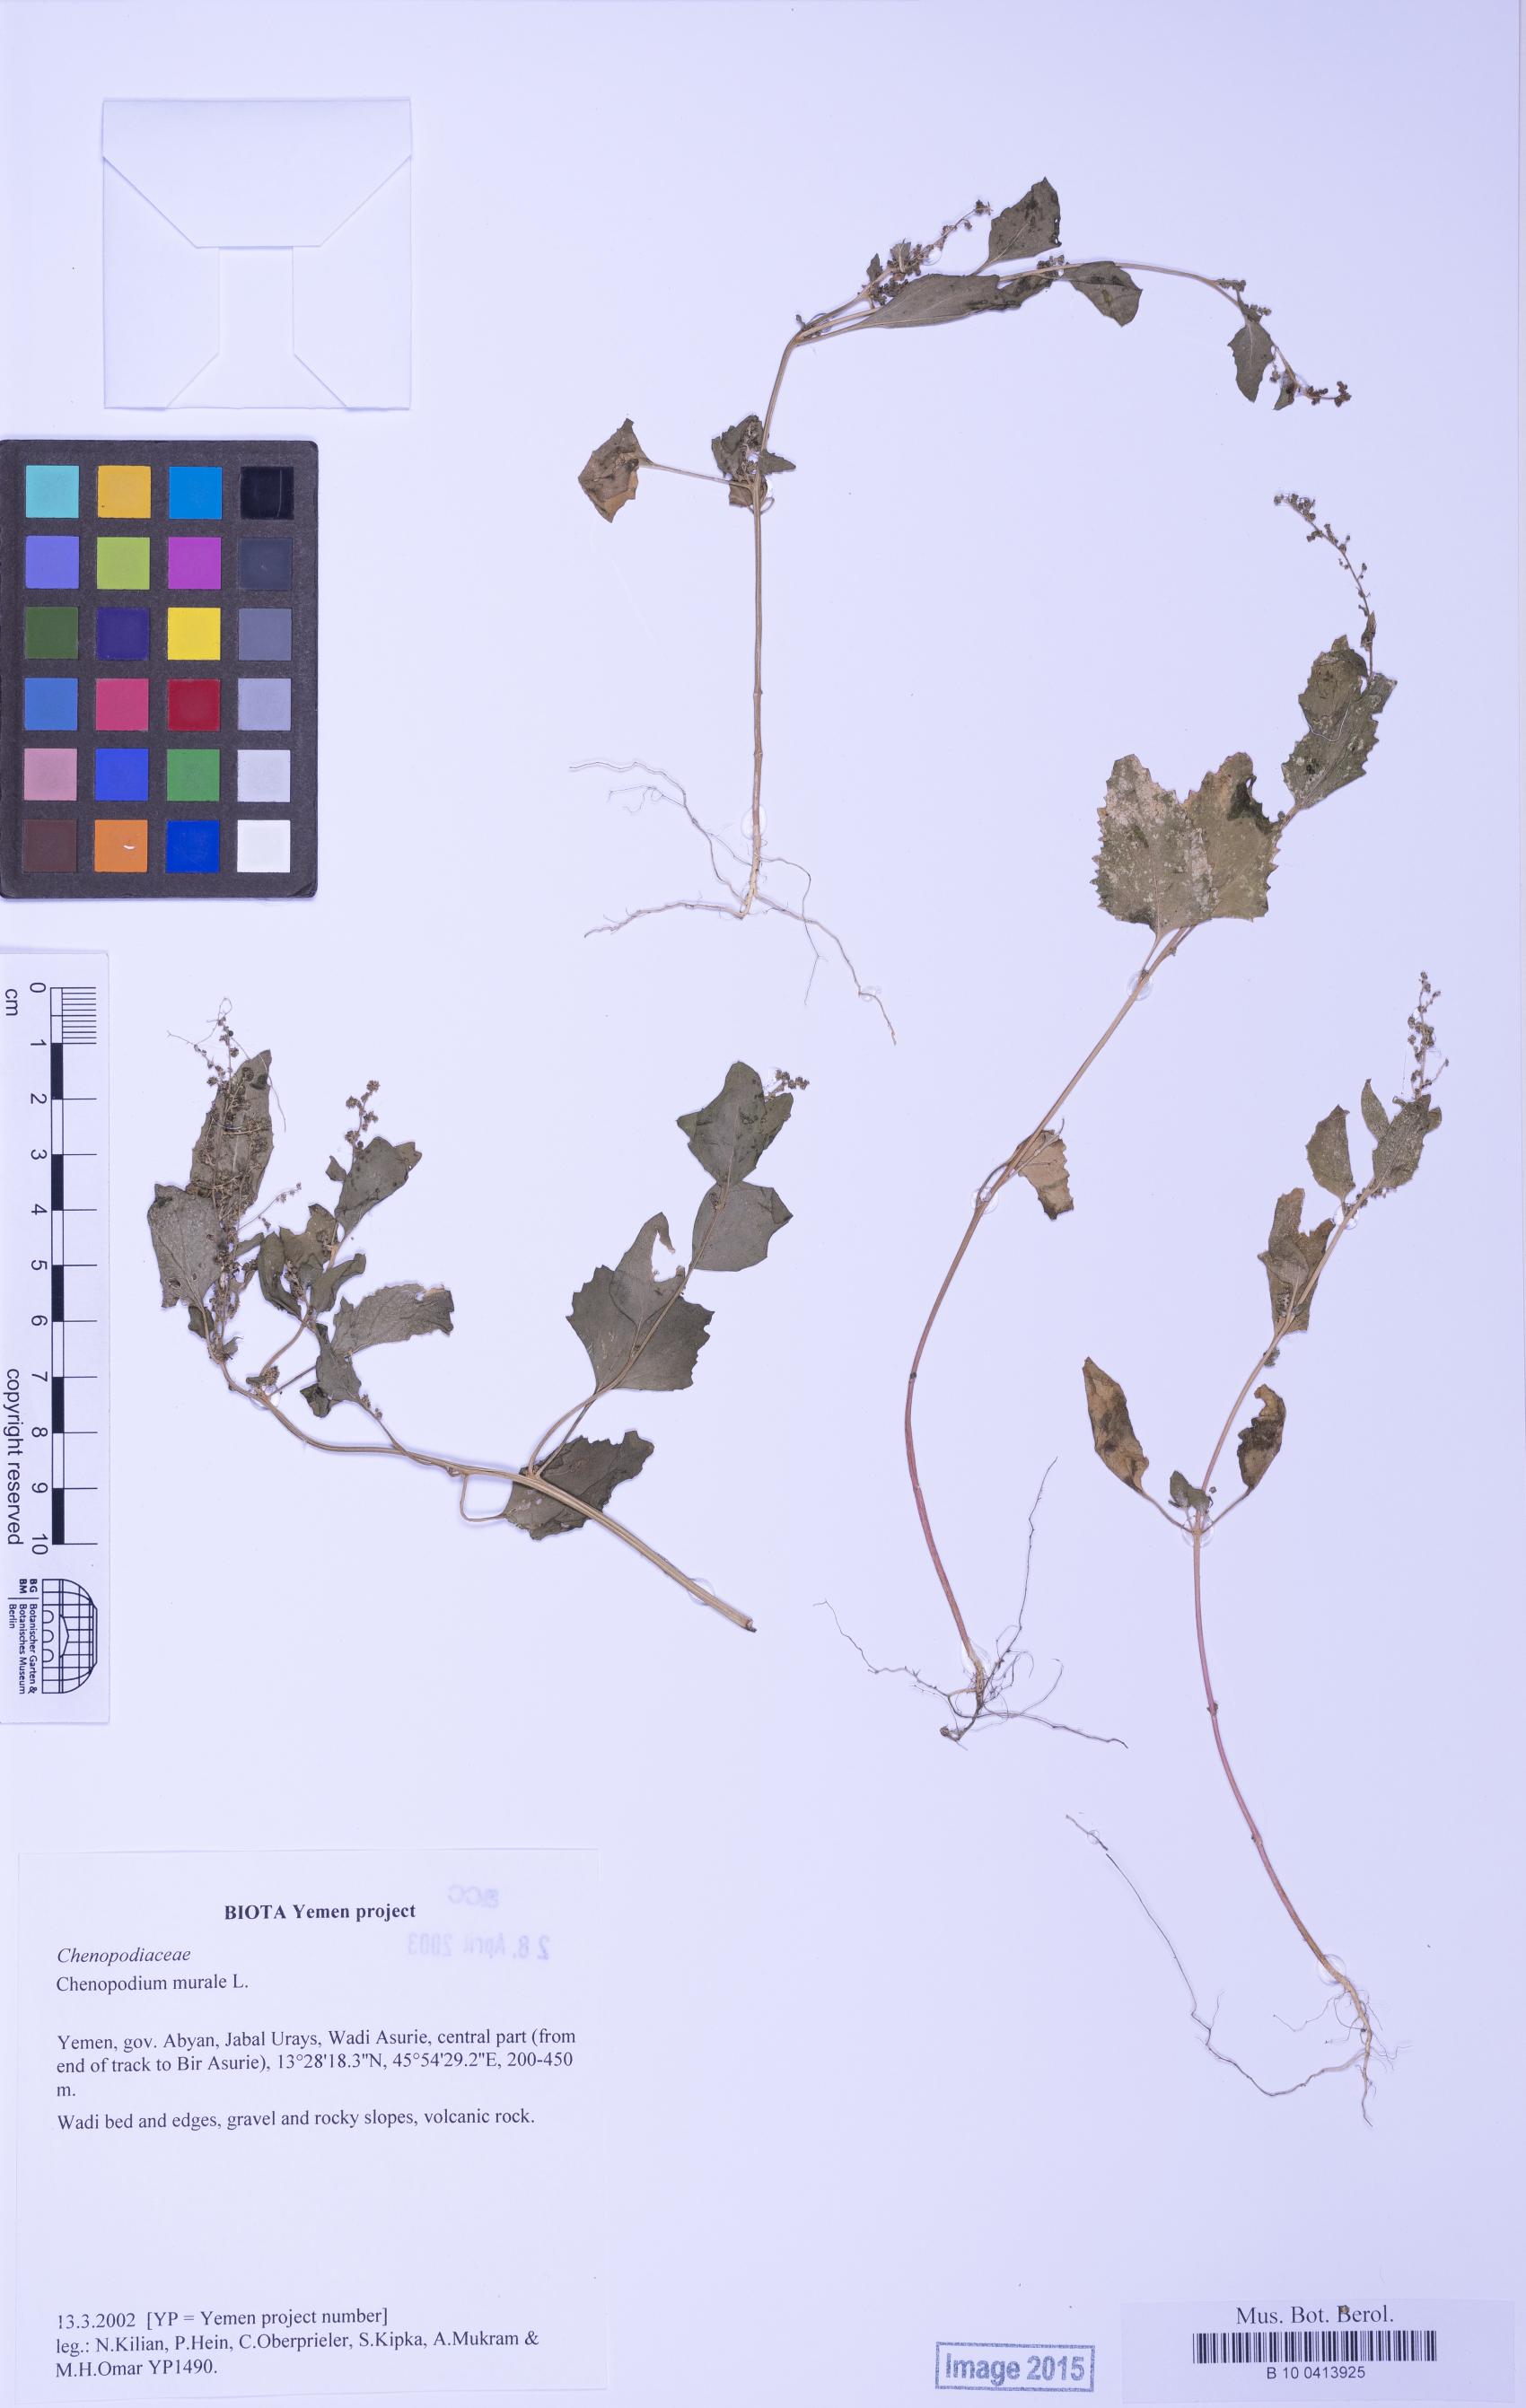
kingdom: Plantae
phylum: Tracheophyta
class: Magnoliopsida
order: Caryophyllales
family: Amaranthaceae
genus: Chenopodiastrum
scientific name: Chenopodiastrum murale
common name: Sowbane
